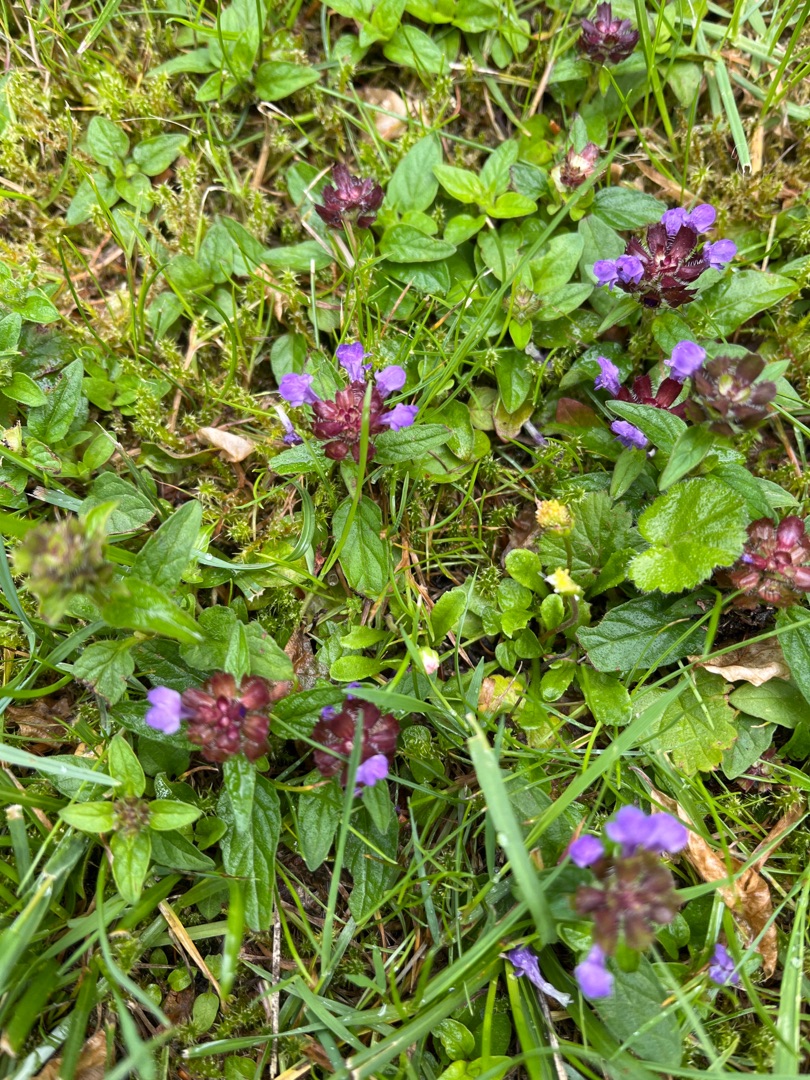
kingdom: Plantae
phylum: Tracheophyta
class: Magnoliopsida
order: Lamiales
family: Lamiaceae
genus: Prunella
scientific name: Prunella vulgaris
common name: Almindelig brunelle
